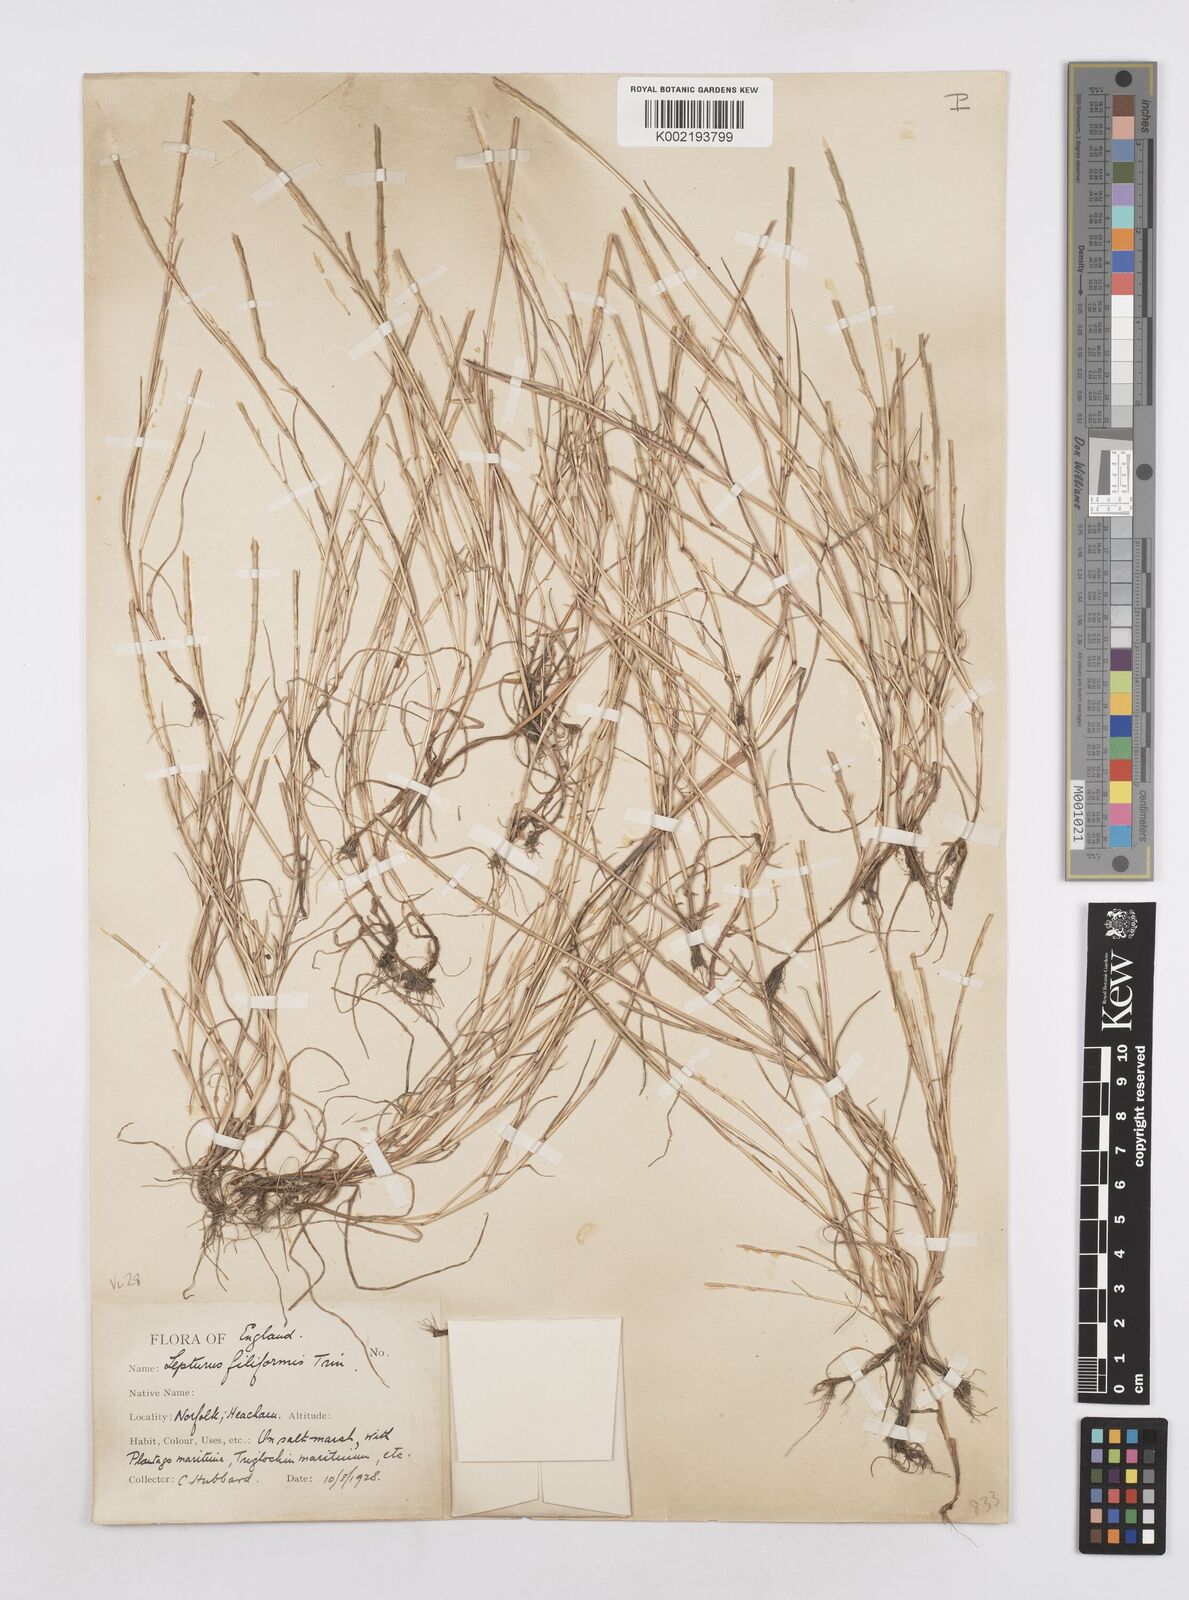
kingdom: Plantae
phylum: Tracheophyta
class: Liliopsida
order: Poales
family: Poaceae
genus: Parapholis
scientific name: Parapholis
